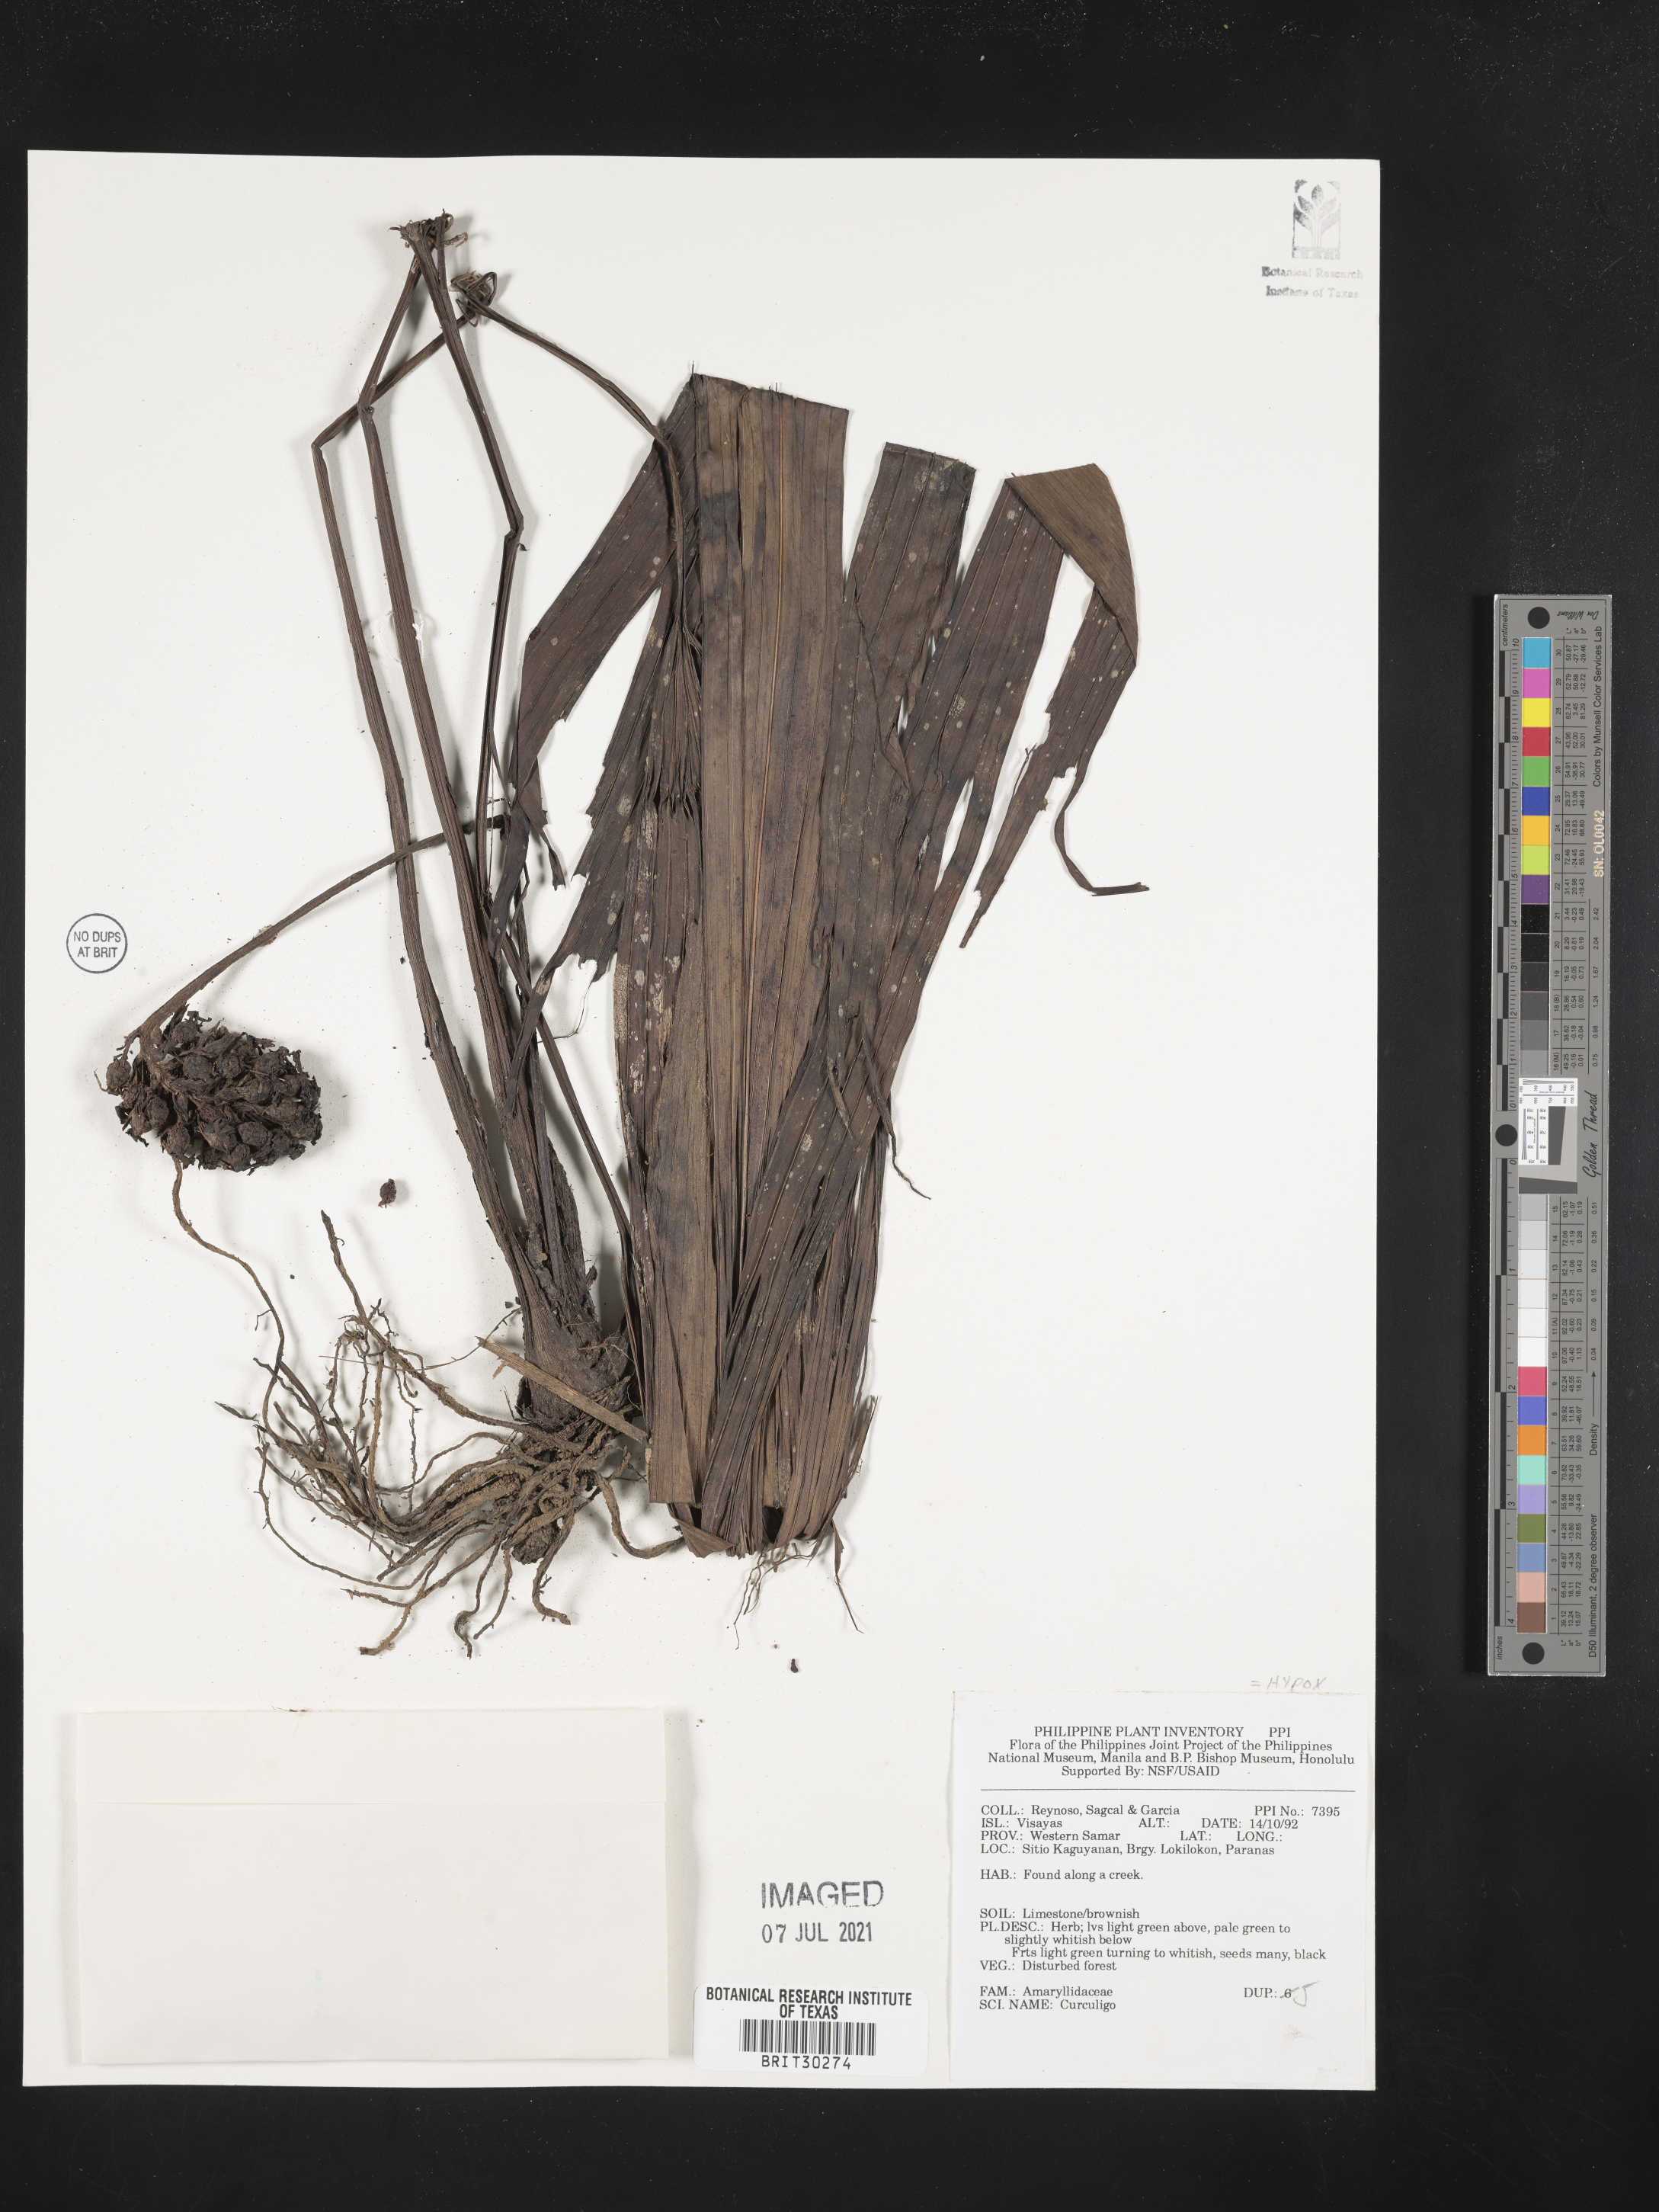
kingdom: Plantae
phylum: Tracheophyta
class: Liliopsida
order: Asparagales
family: Hypoxidaceae
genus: Curculigo
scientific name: Curculigo
